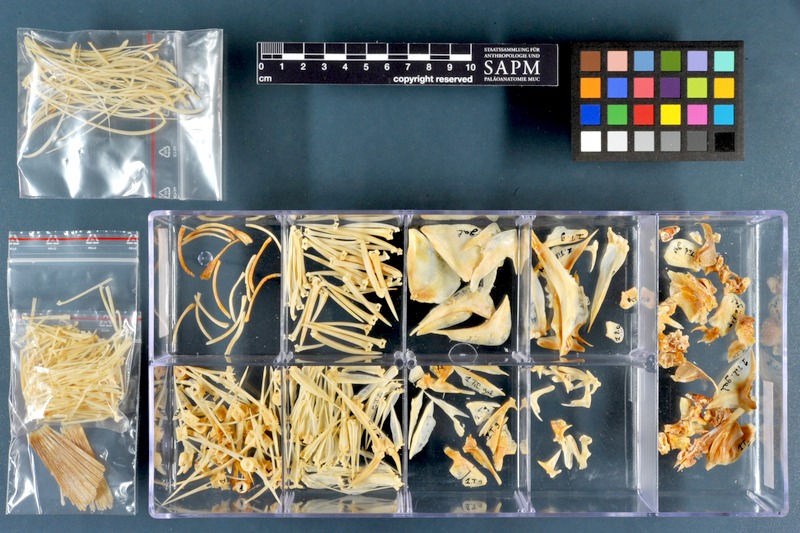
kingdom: Animalia
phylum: Chordata
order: Perciformes
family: Cichlidae
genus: Sarotherodon
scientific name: Sarotherodon galilaeus
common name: Mango tilapia
